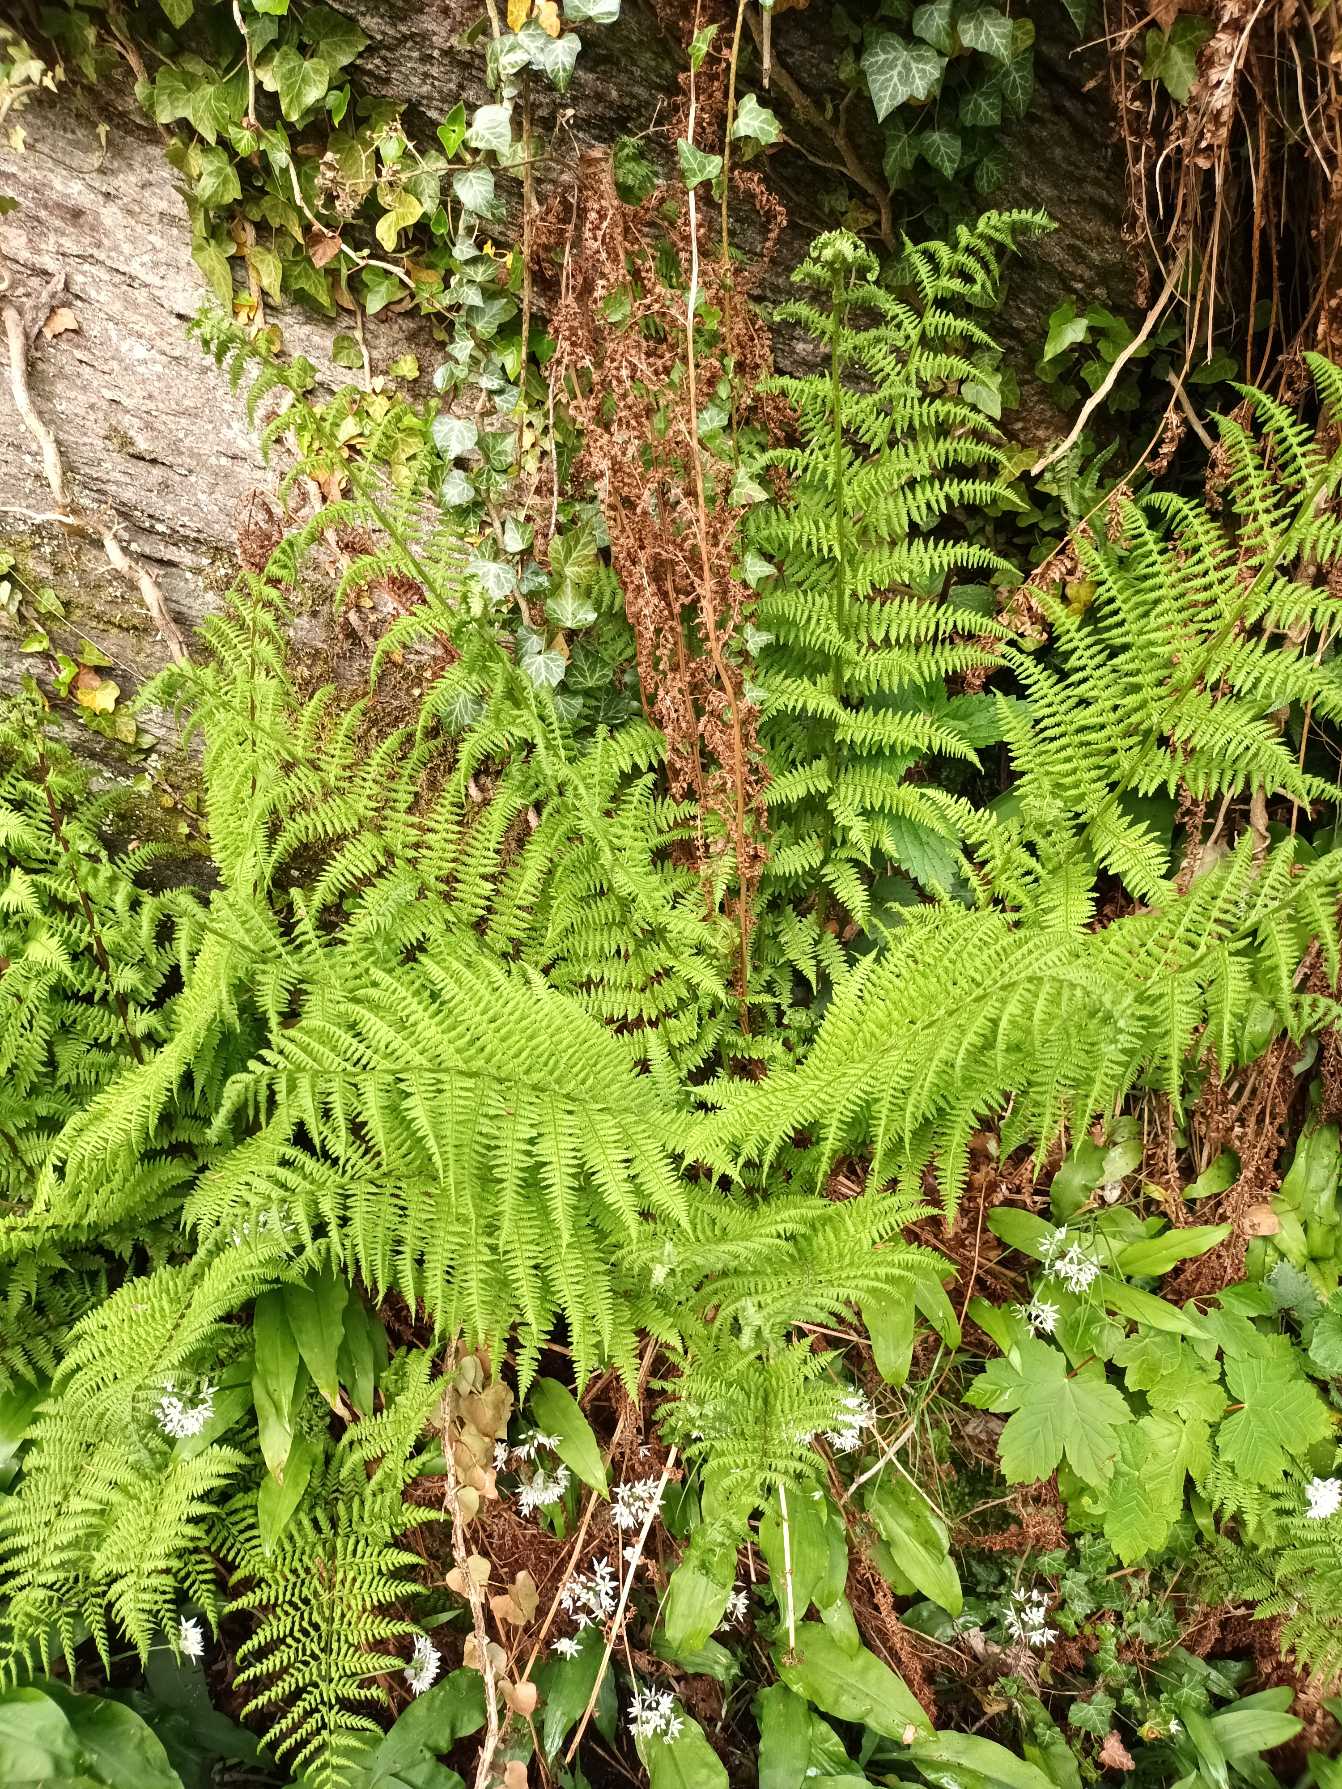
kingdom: Plantae
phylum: Tracheophyta
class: Polypodiopsida
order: Polypodiales
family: Athyriaceae
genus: Athyrium
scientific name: Athyrium filix-femina
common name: Fjerbregne
